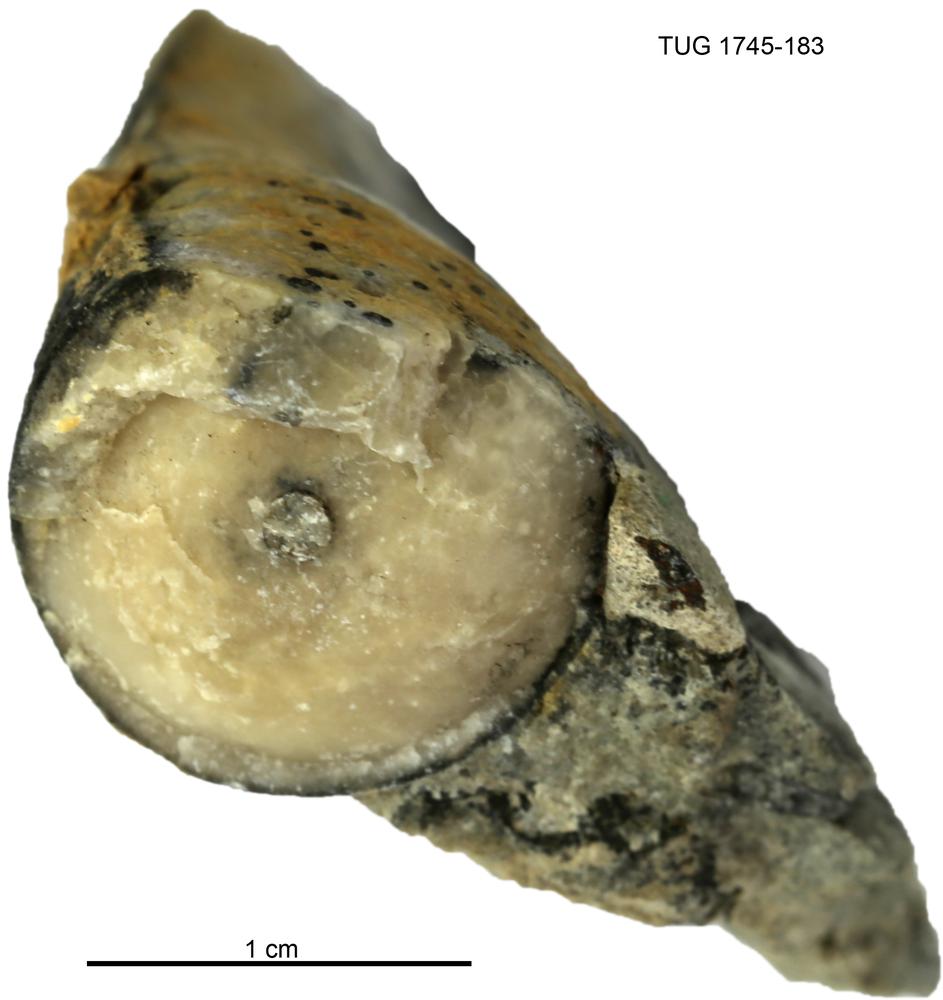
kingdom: Animalia
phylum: Mollusca
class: Cephalopoda
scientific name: Cephalopoda
